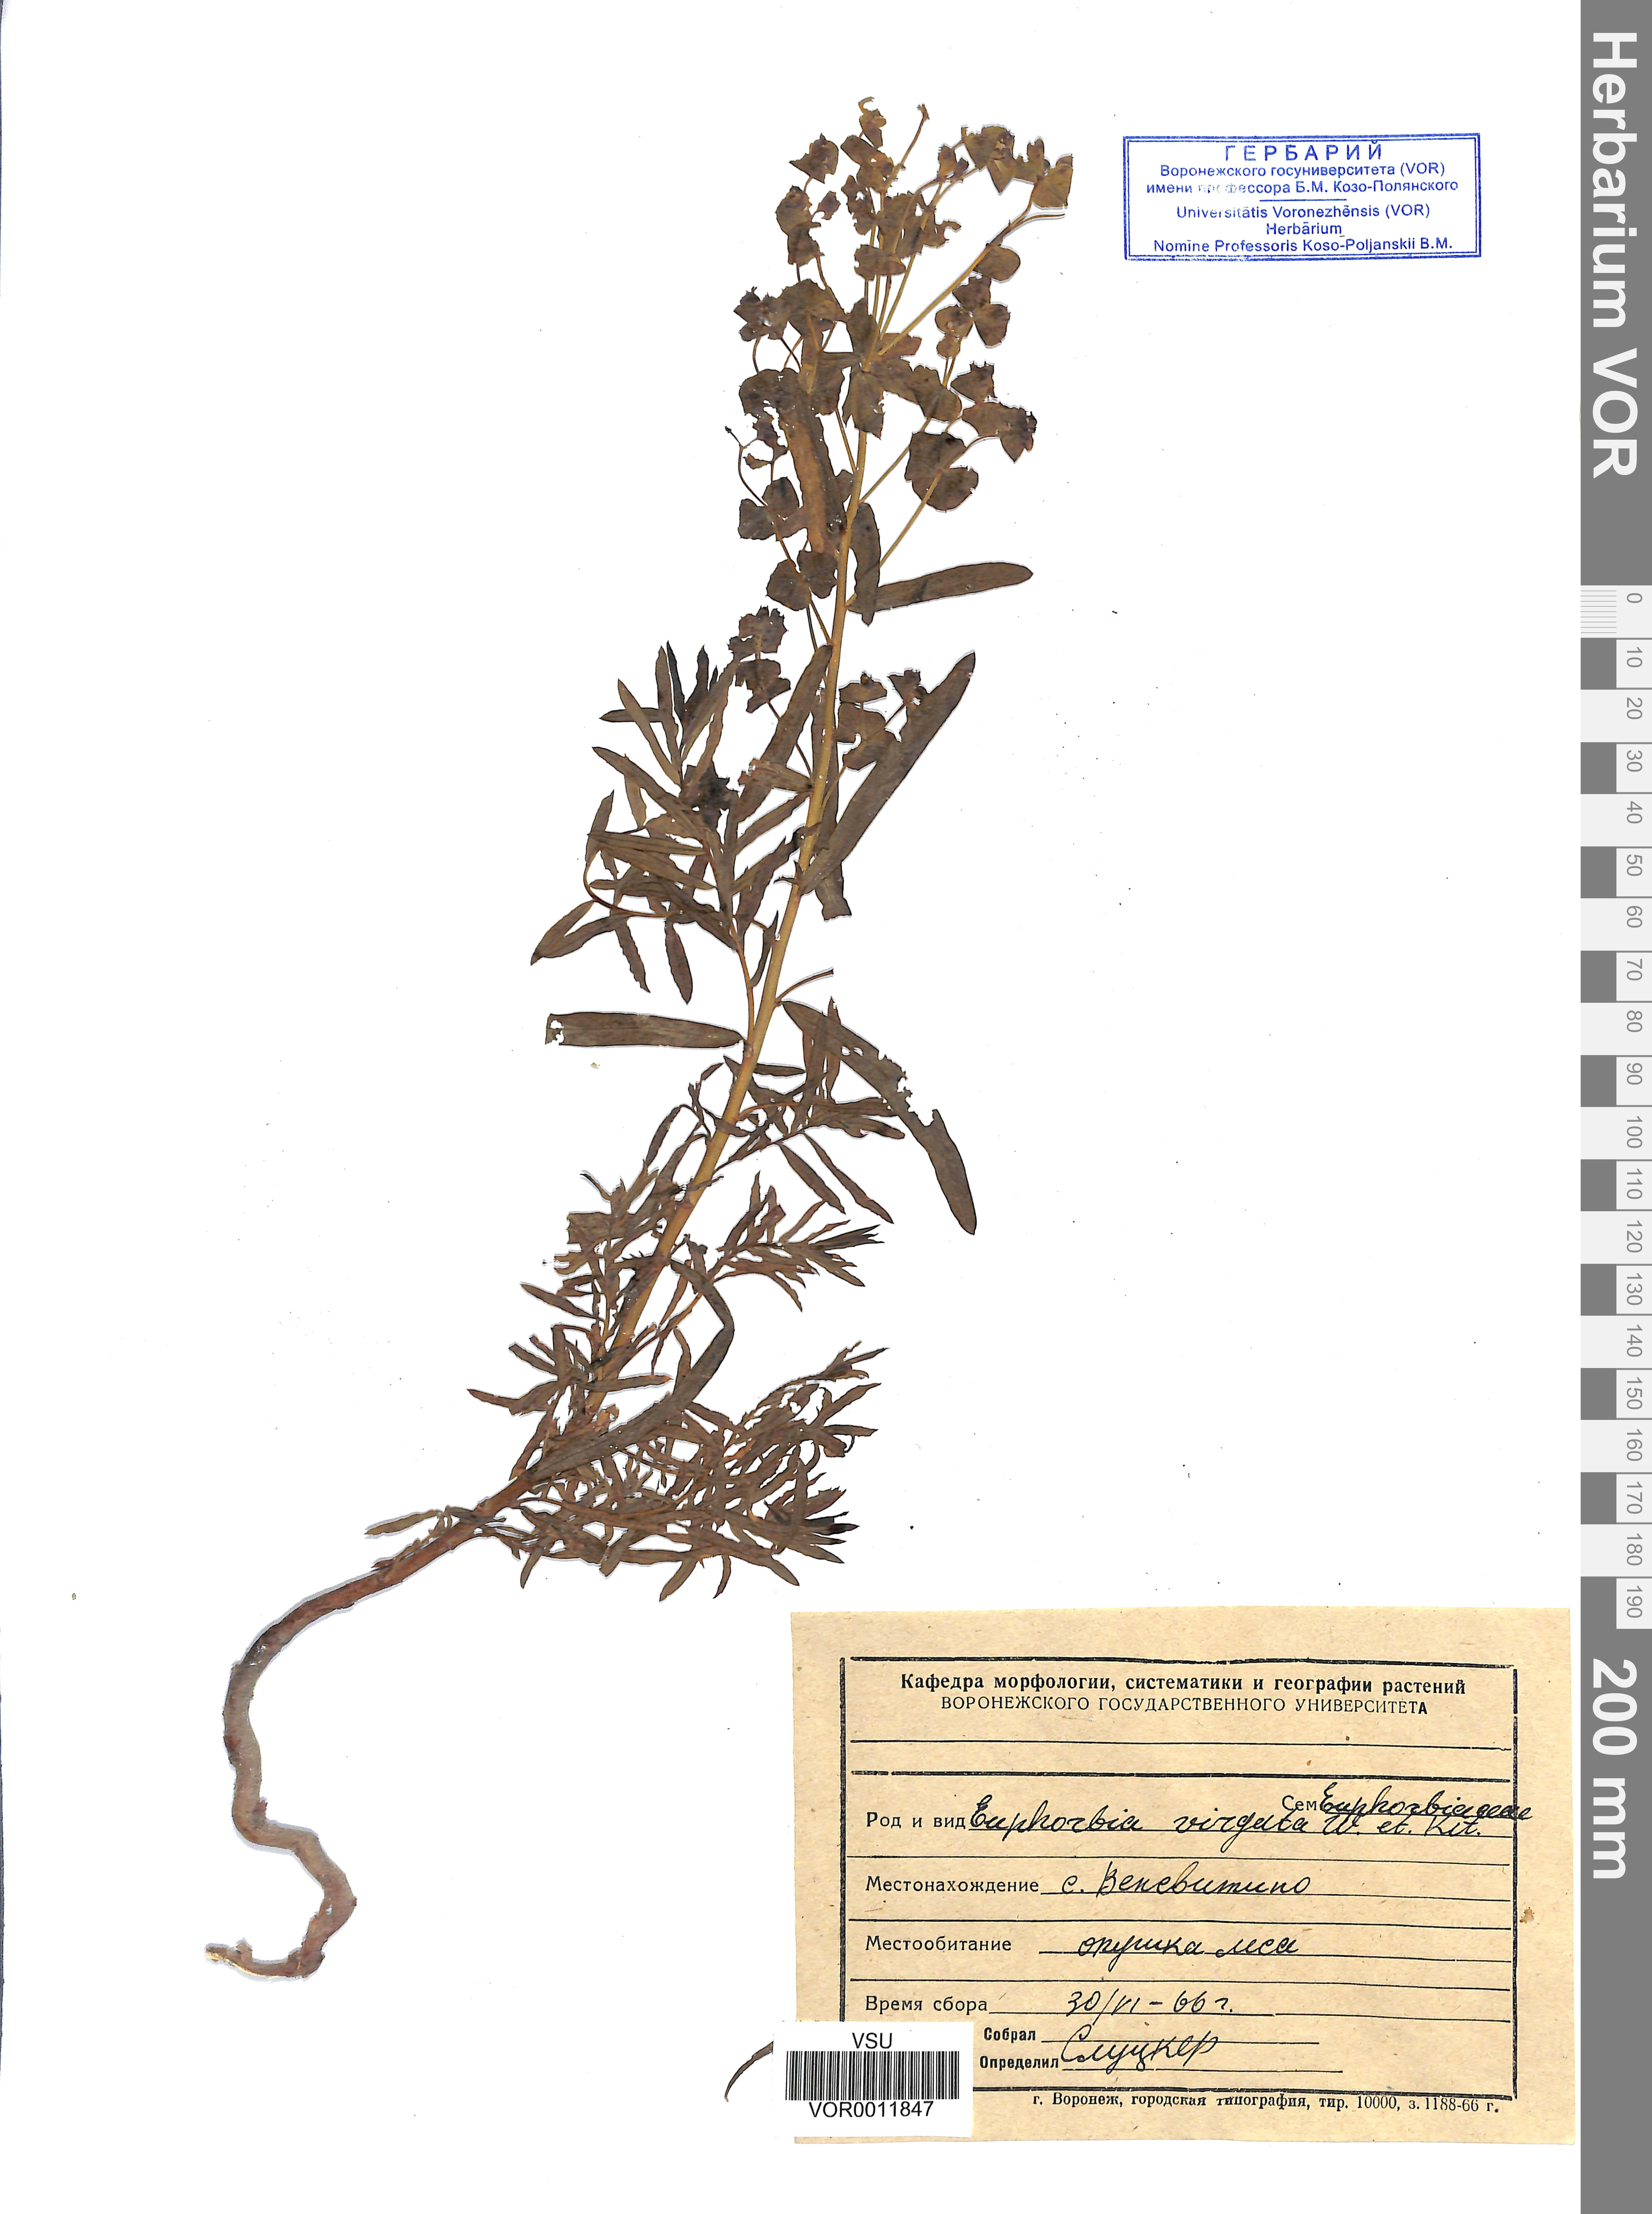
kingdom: Plantae
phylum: Tracheophyta
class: Magnoliopsida
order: Malpighiales
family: Euphorbiaceae
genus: Euphorbia
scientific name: Euphorbia virgata
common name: Leafy spurge
